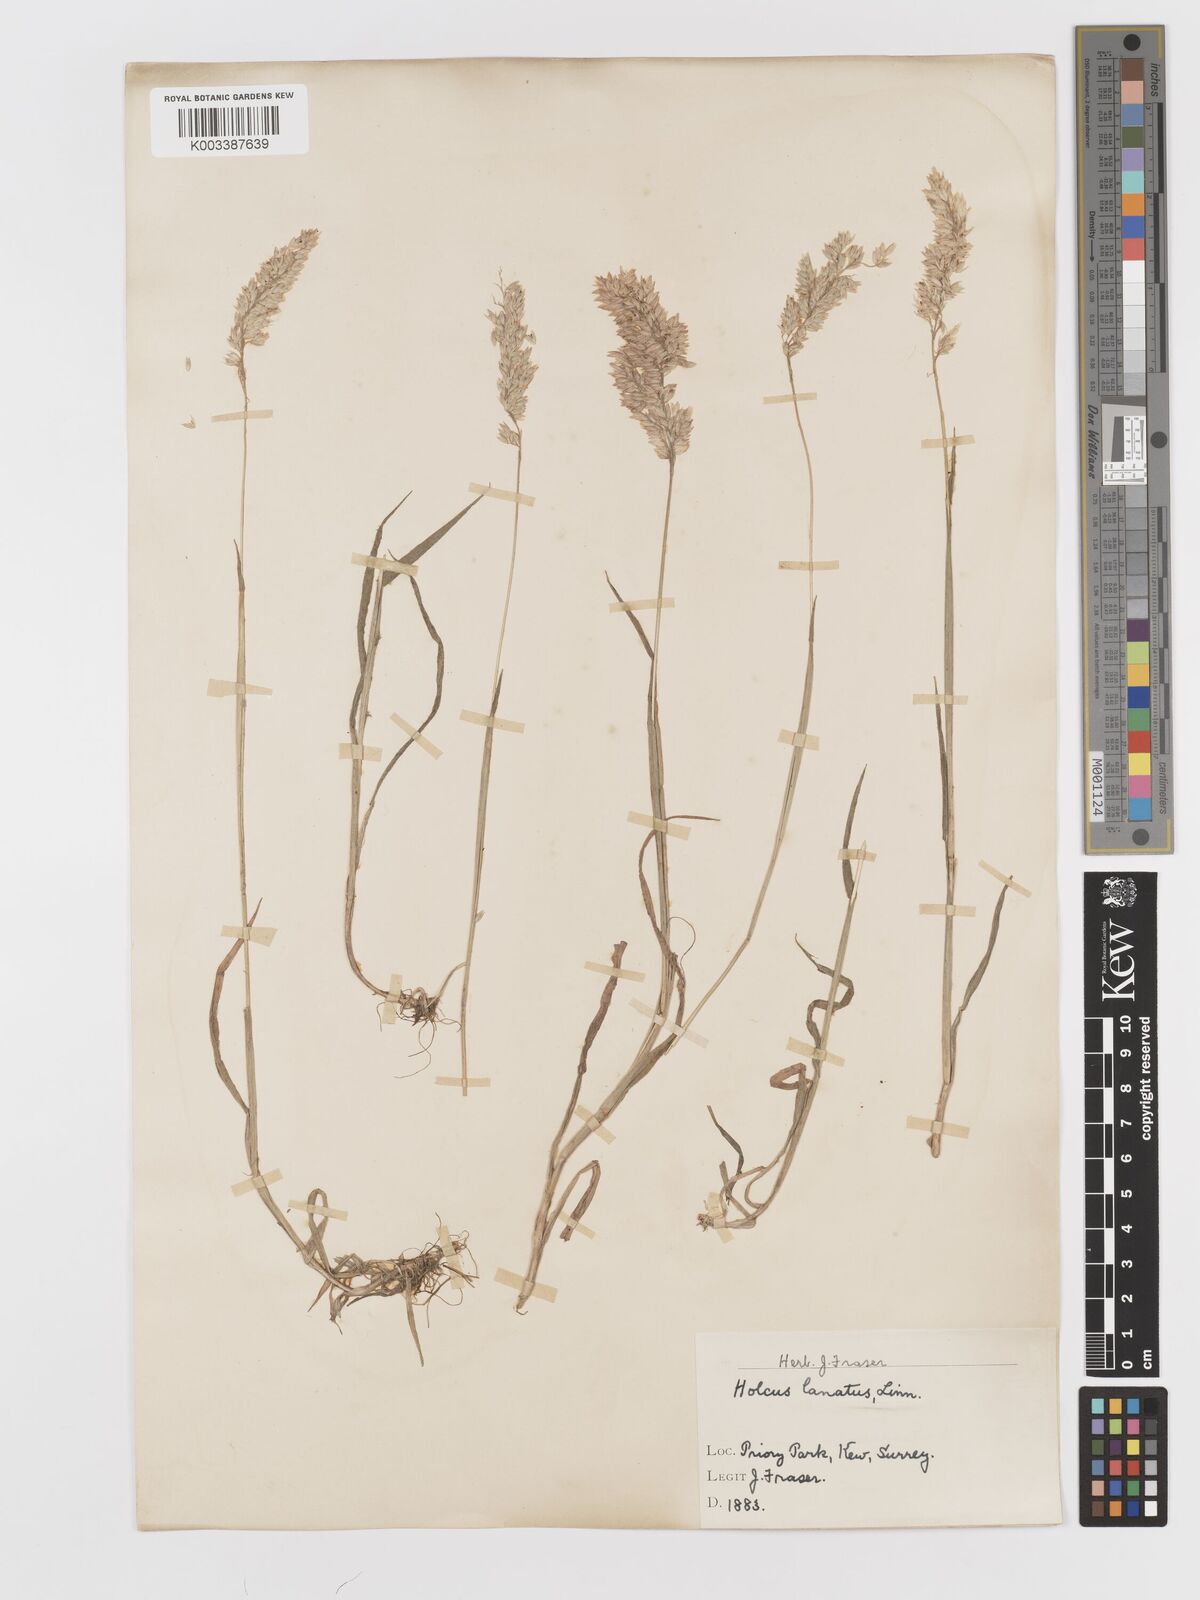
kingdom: Plantae
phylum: Tracheophyta
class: Liliopsida
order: Poales
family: Poaceae
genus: Holcus
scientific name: Holcus lanatus
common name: Yorkshire-fog
